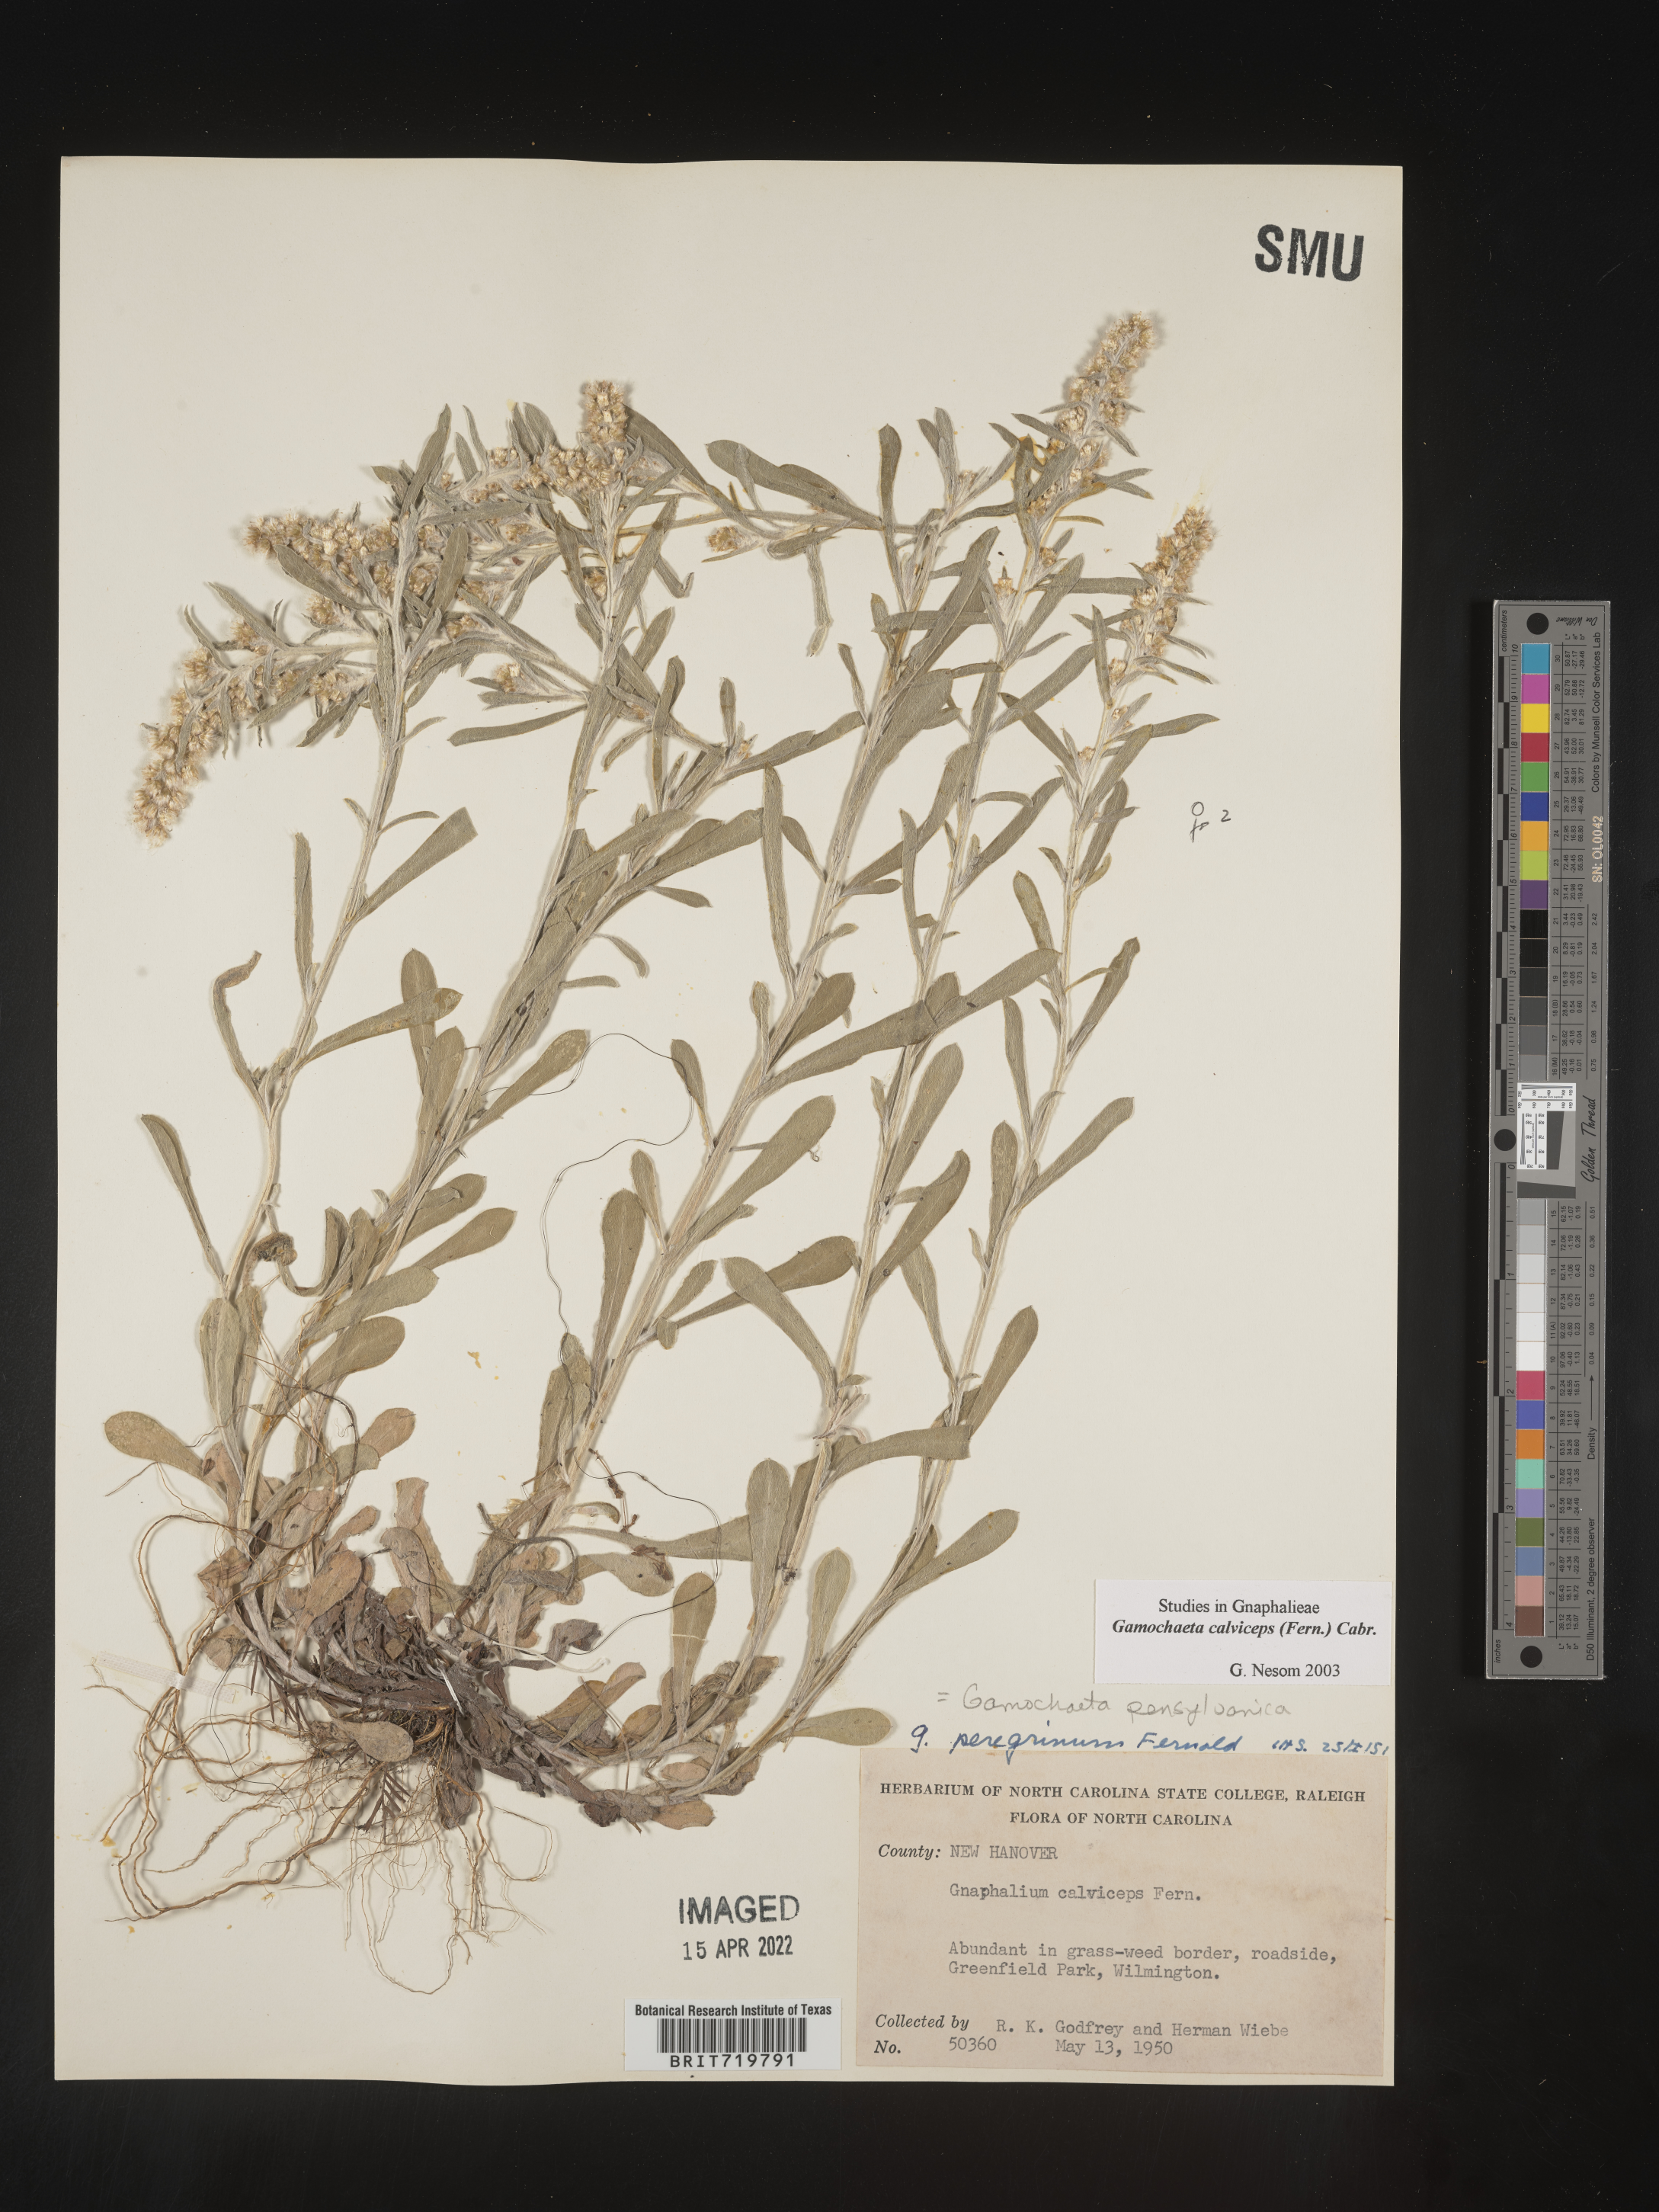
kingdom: Plantae
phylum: Tracheophyta
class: Magnoliopsida
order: Asterales
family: Asteraceae
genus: Gamochaeta
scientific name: Gamochaeta calviceps
